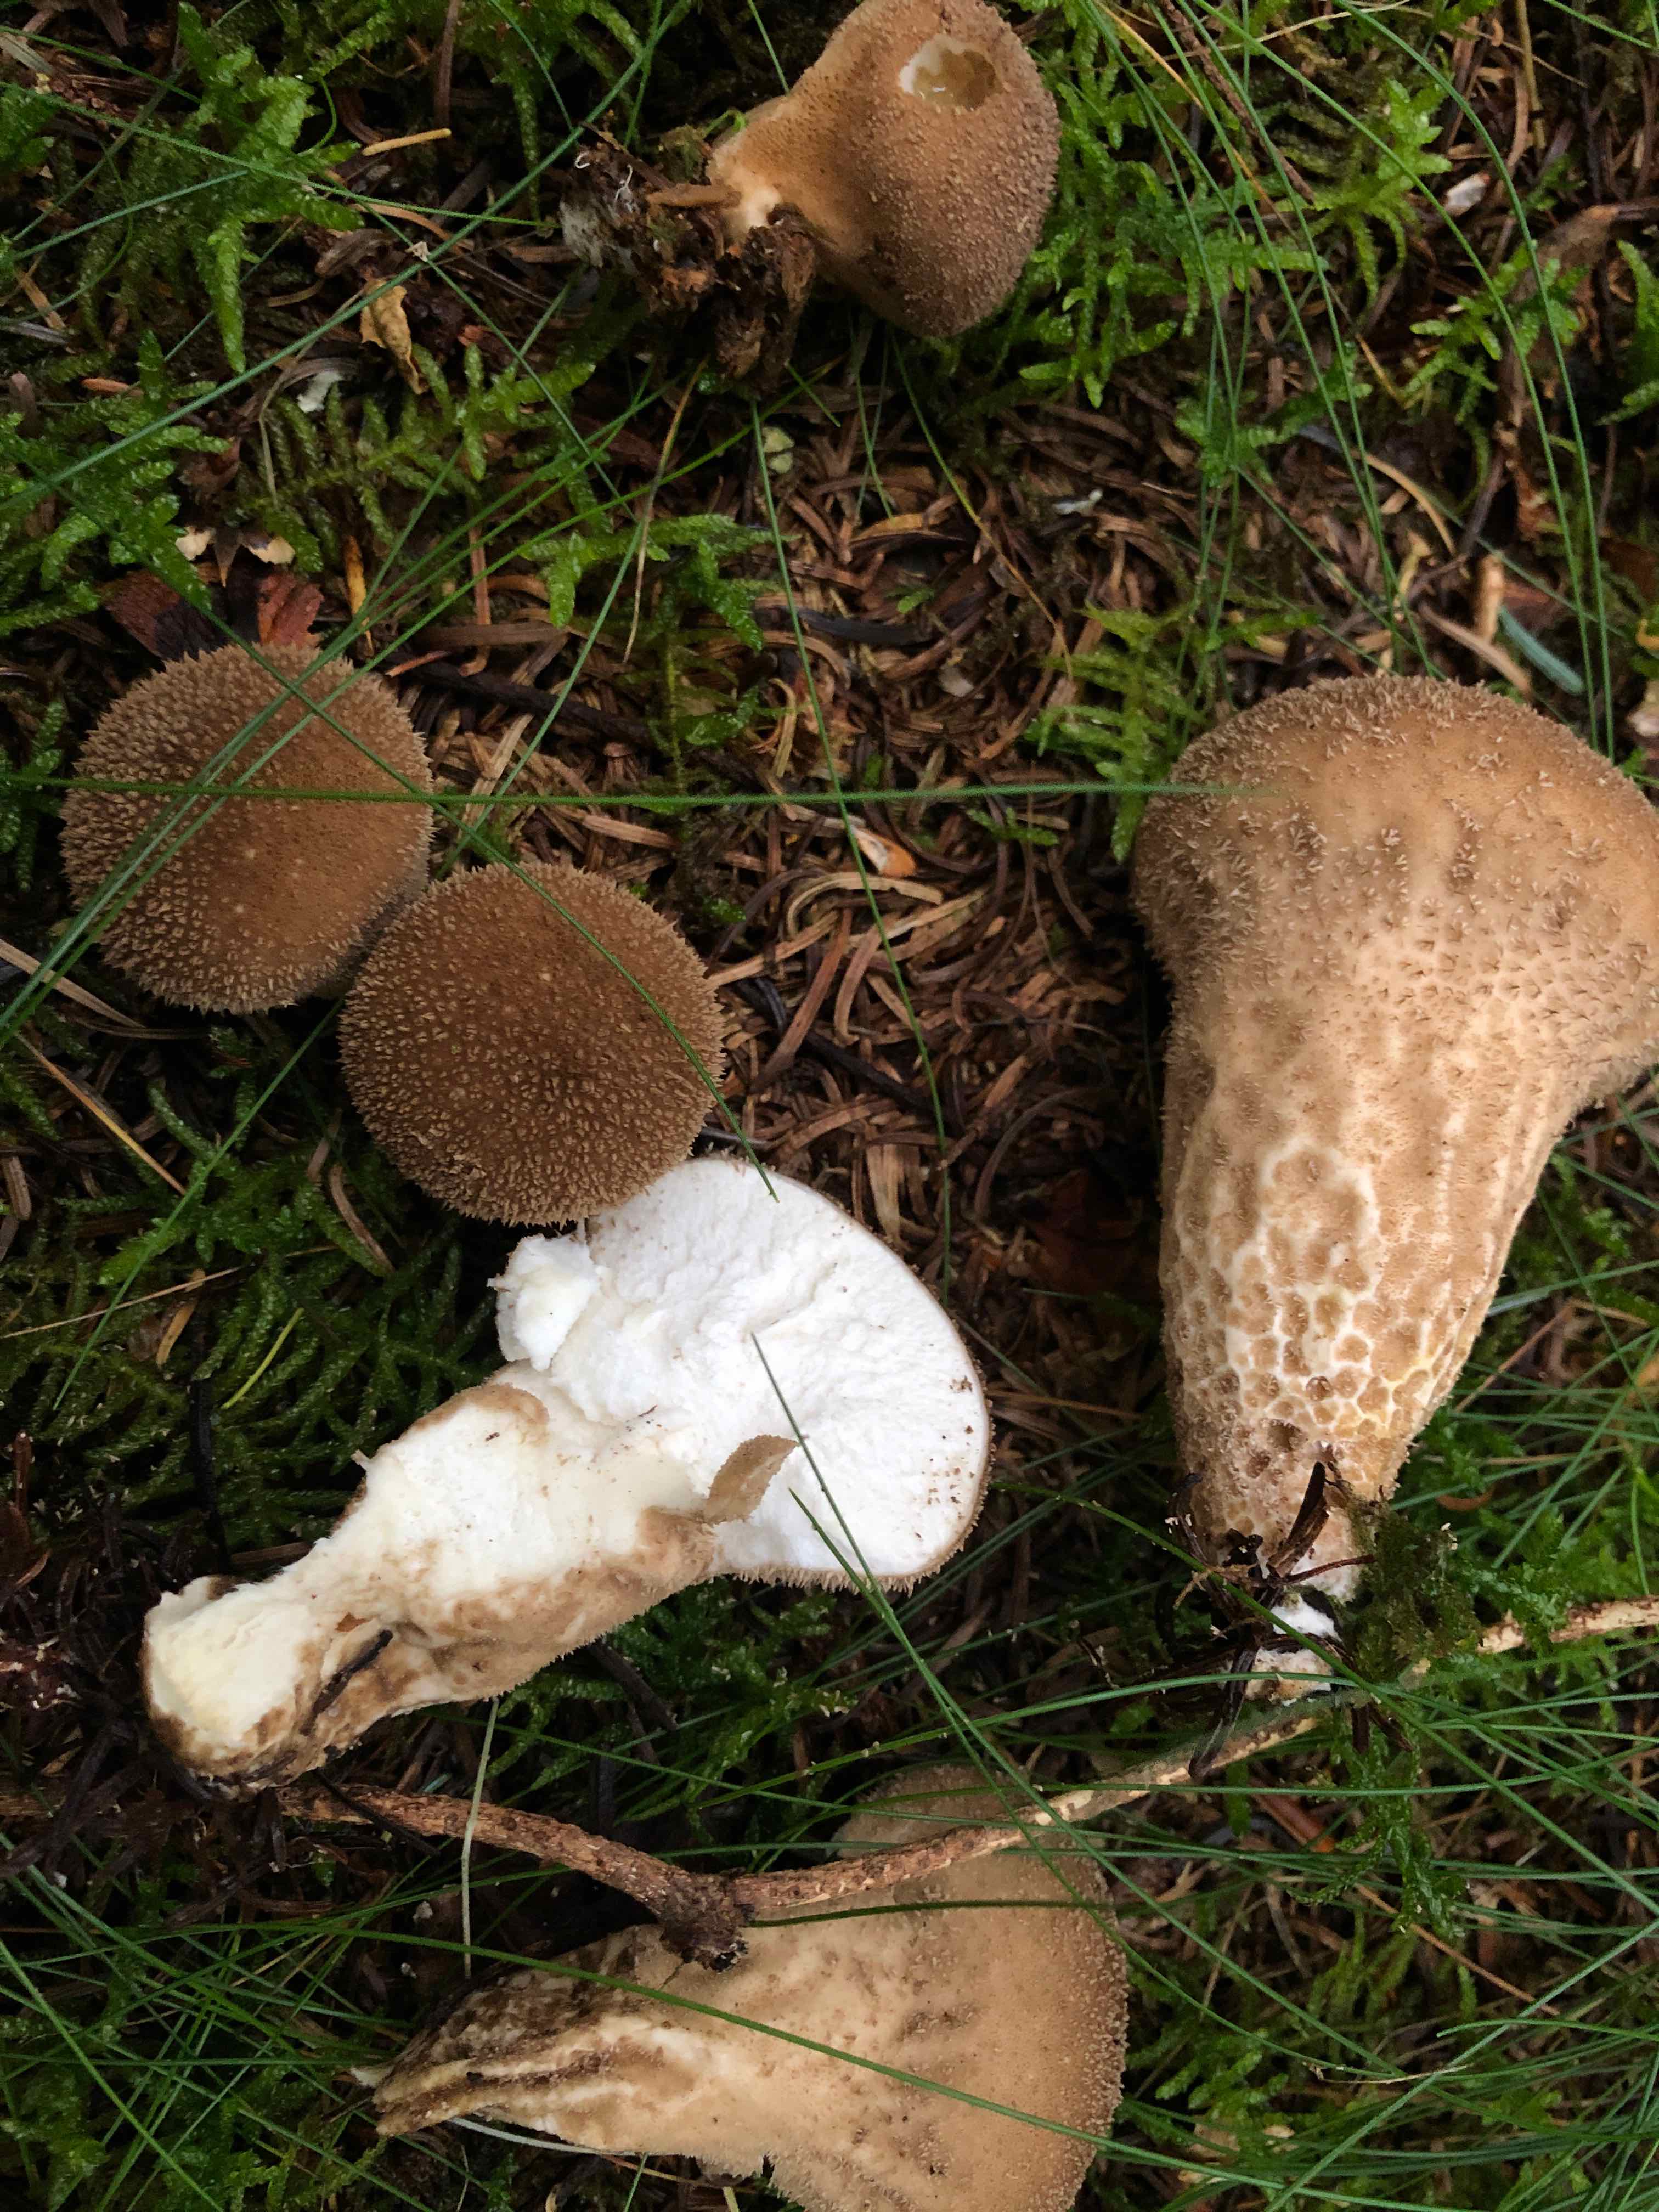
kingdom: Fungi
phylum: Basidiomycota
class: Agaricomycetes
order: Agaricales
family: Lycoperdaceae
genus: Lycoperdon
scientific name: Lycoperdon nigrescens
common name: sortagtig støvbold
